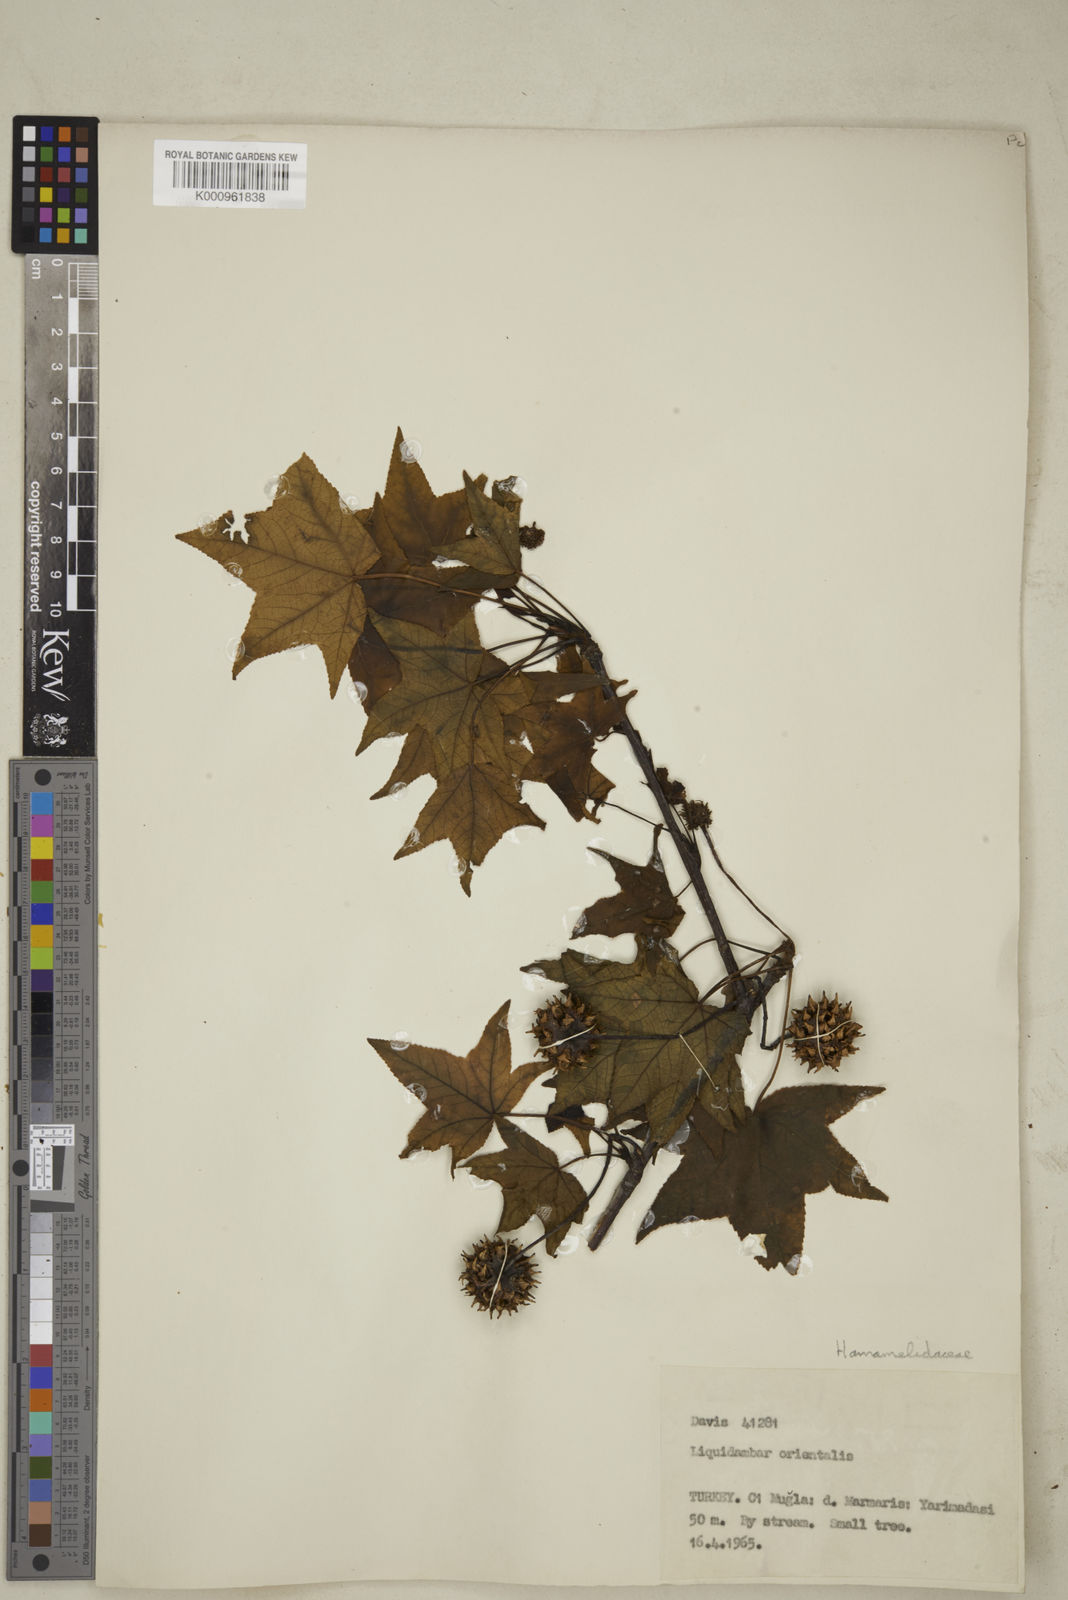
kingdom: Plantae
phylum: Tracheophyta
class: Magnoliopsida
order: Saxifragales
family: Altingiaceae
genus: Liquidambar
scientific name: Liquidambar orientalis
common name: Oriental sweetgum
